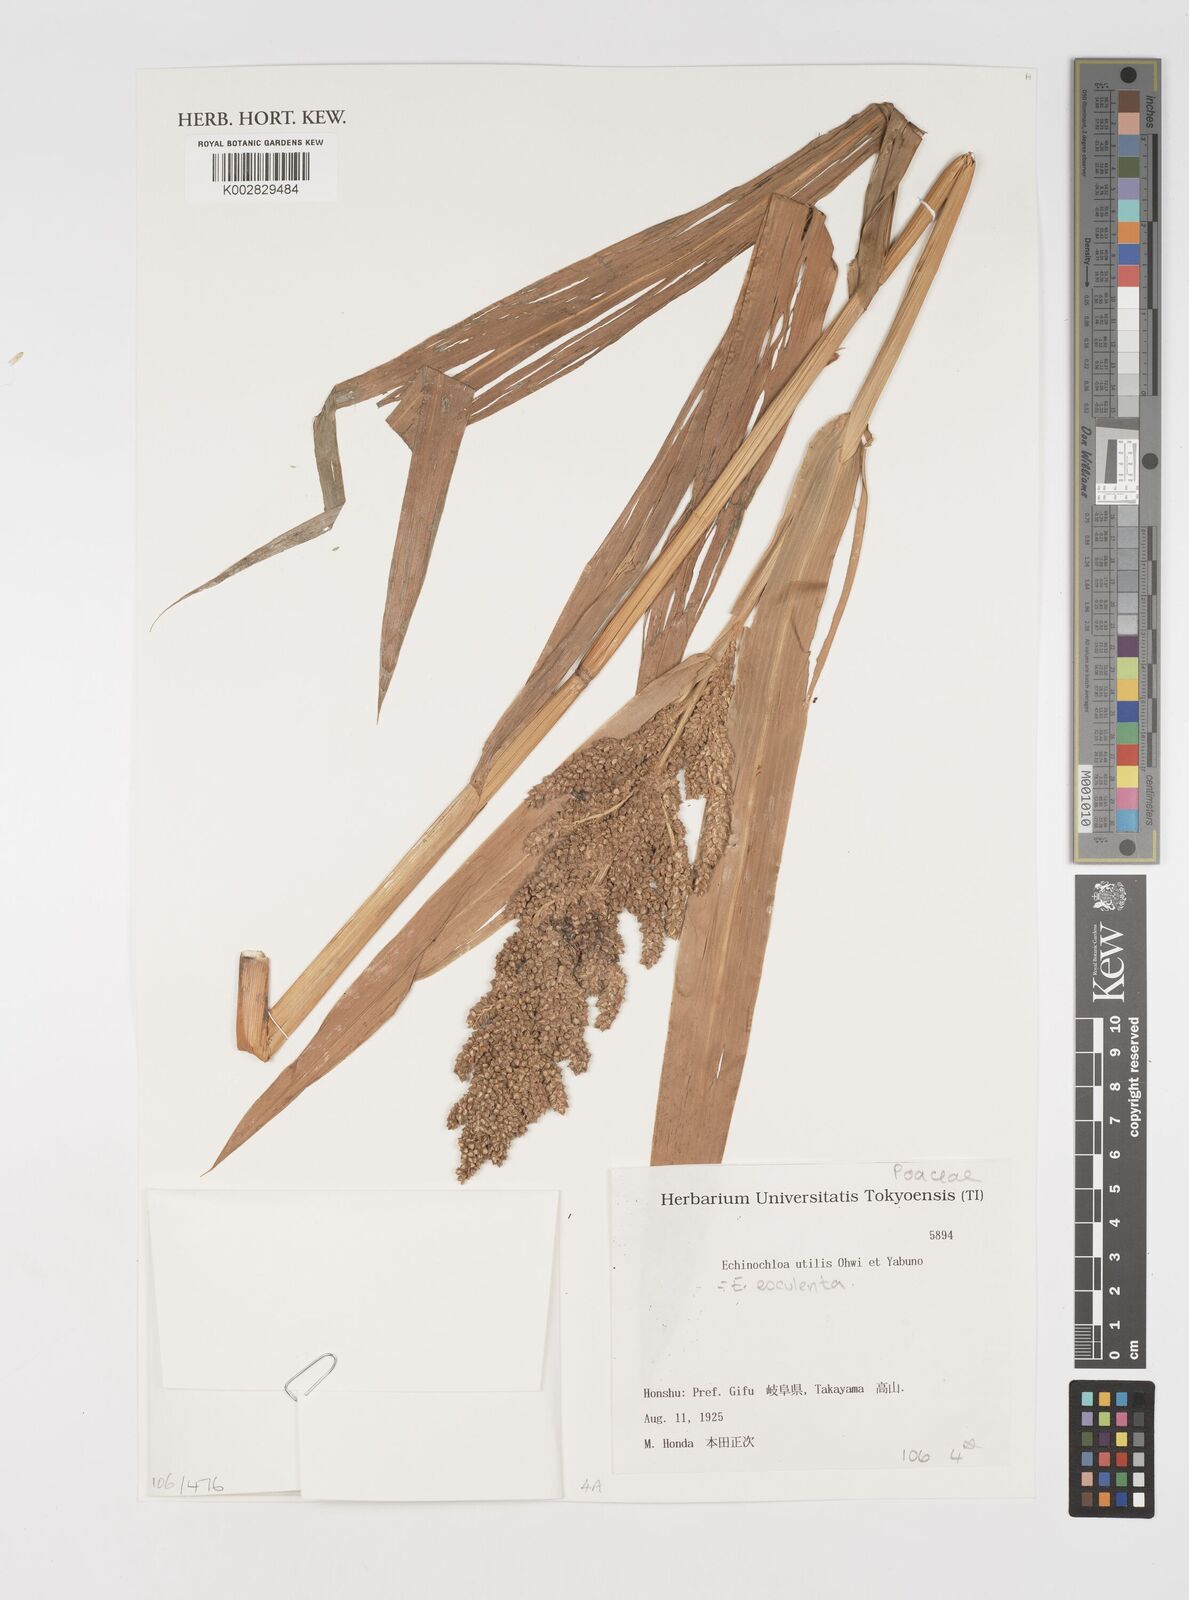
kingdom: Plantae
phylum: Tracheophyta
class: Liliopsida
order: Poales
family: Poaceae
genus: Echinochloa
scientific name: Echinochloa crus-galli
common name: Cockspur
